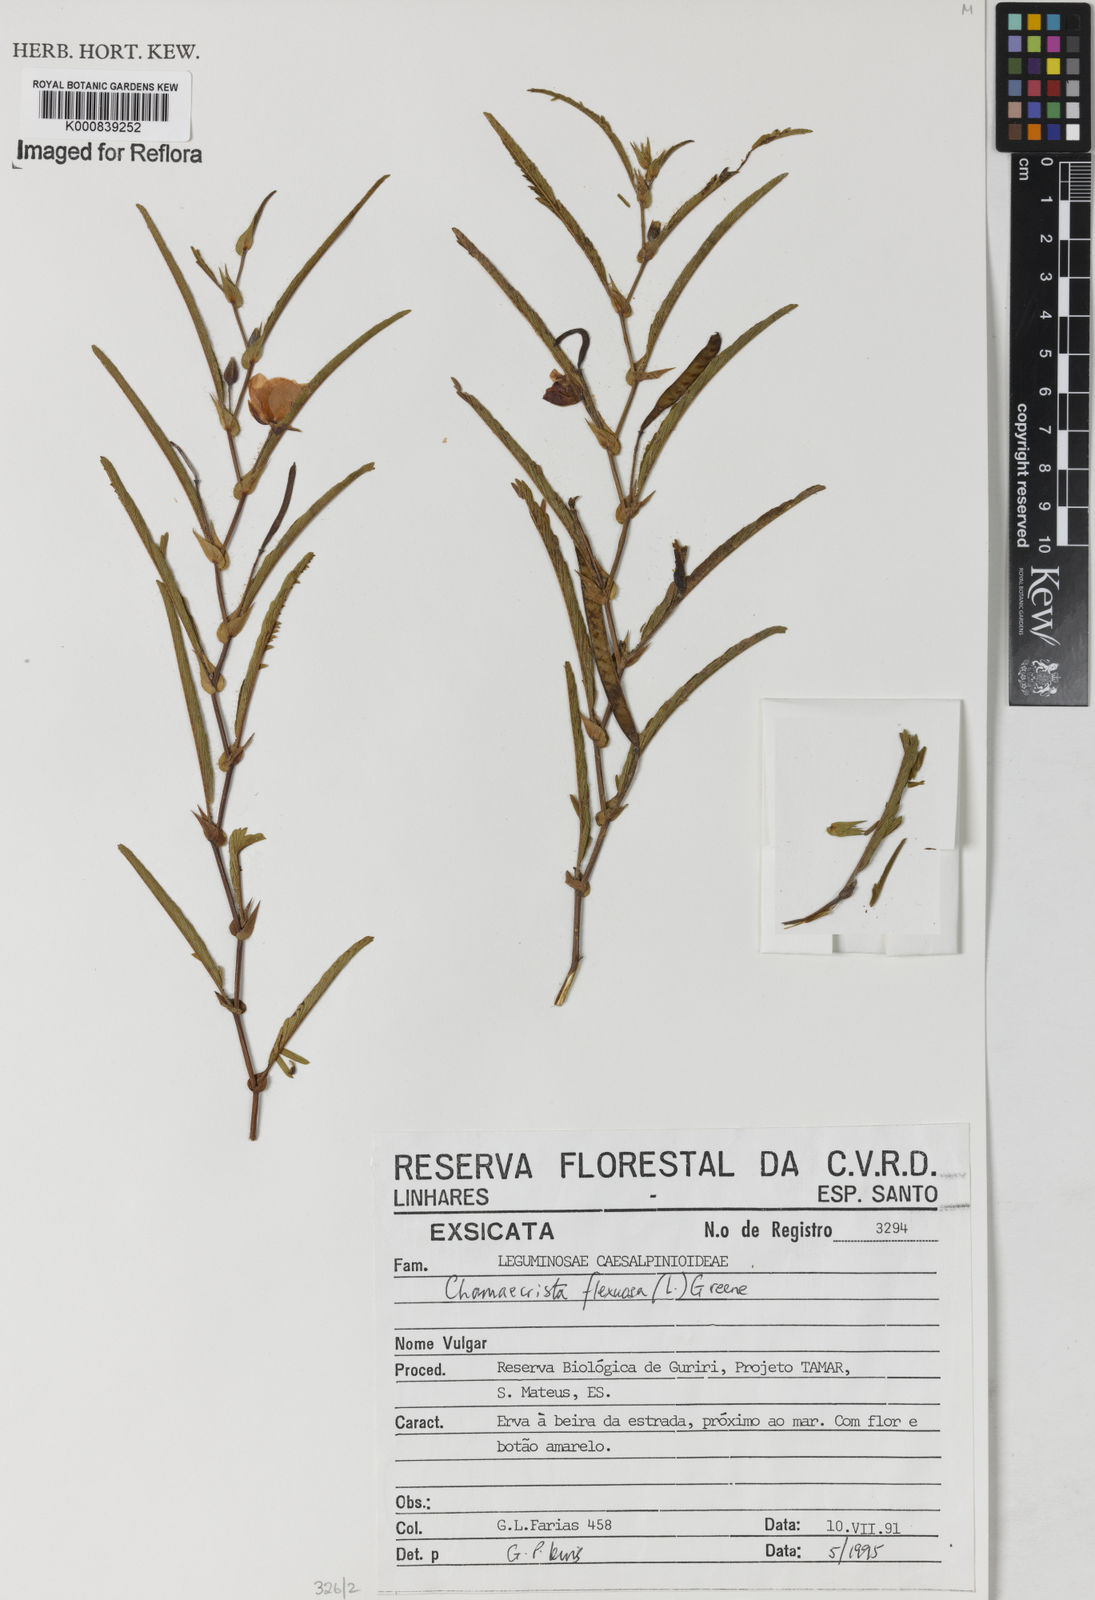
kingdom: Plantae
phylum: Tracheophyta
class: Magnoliopsida
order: Fabales
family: Fabaceae
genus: Chamaecrista
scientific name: Chamaecrista flexuosa
